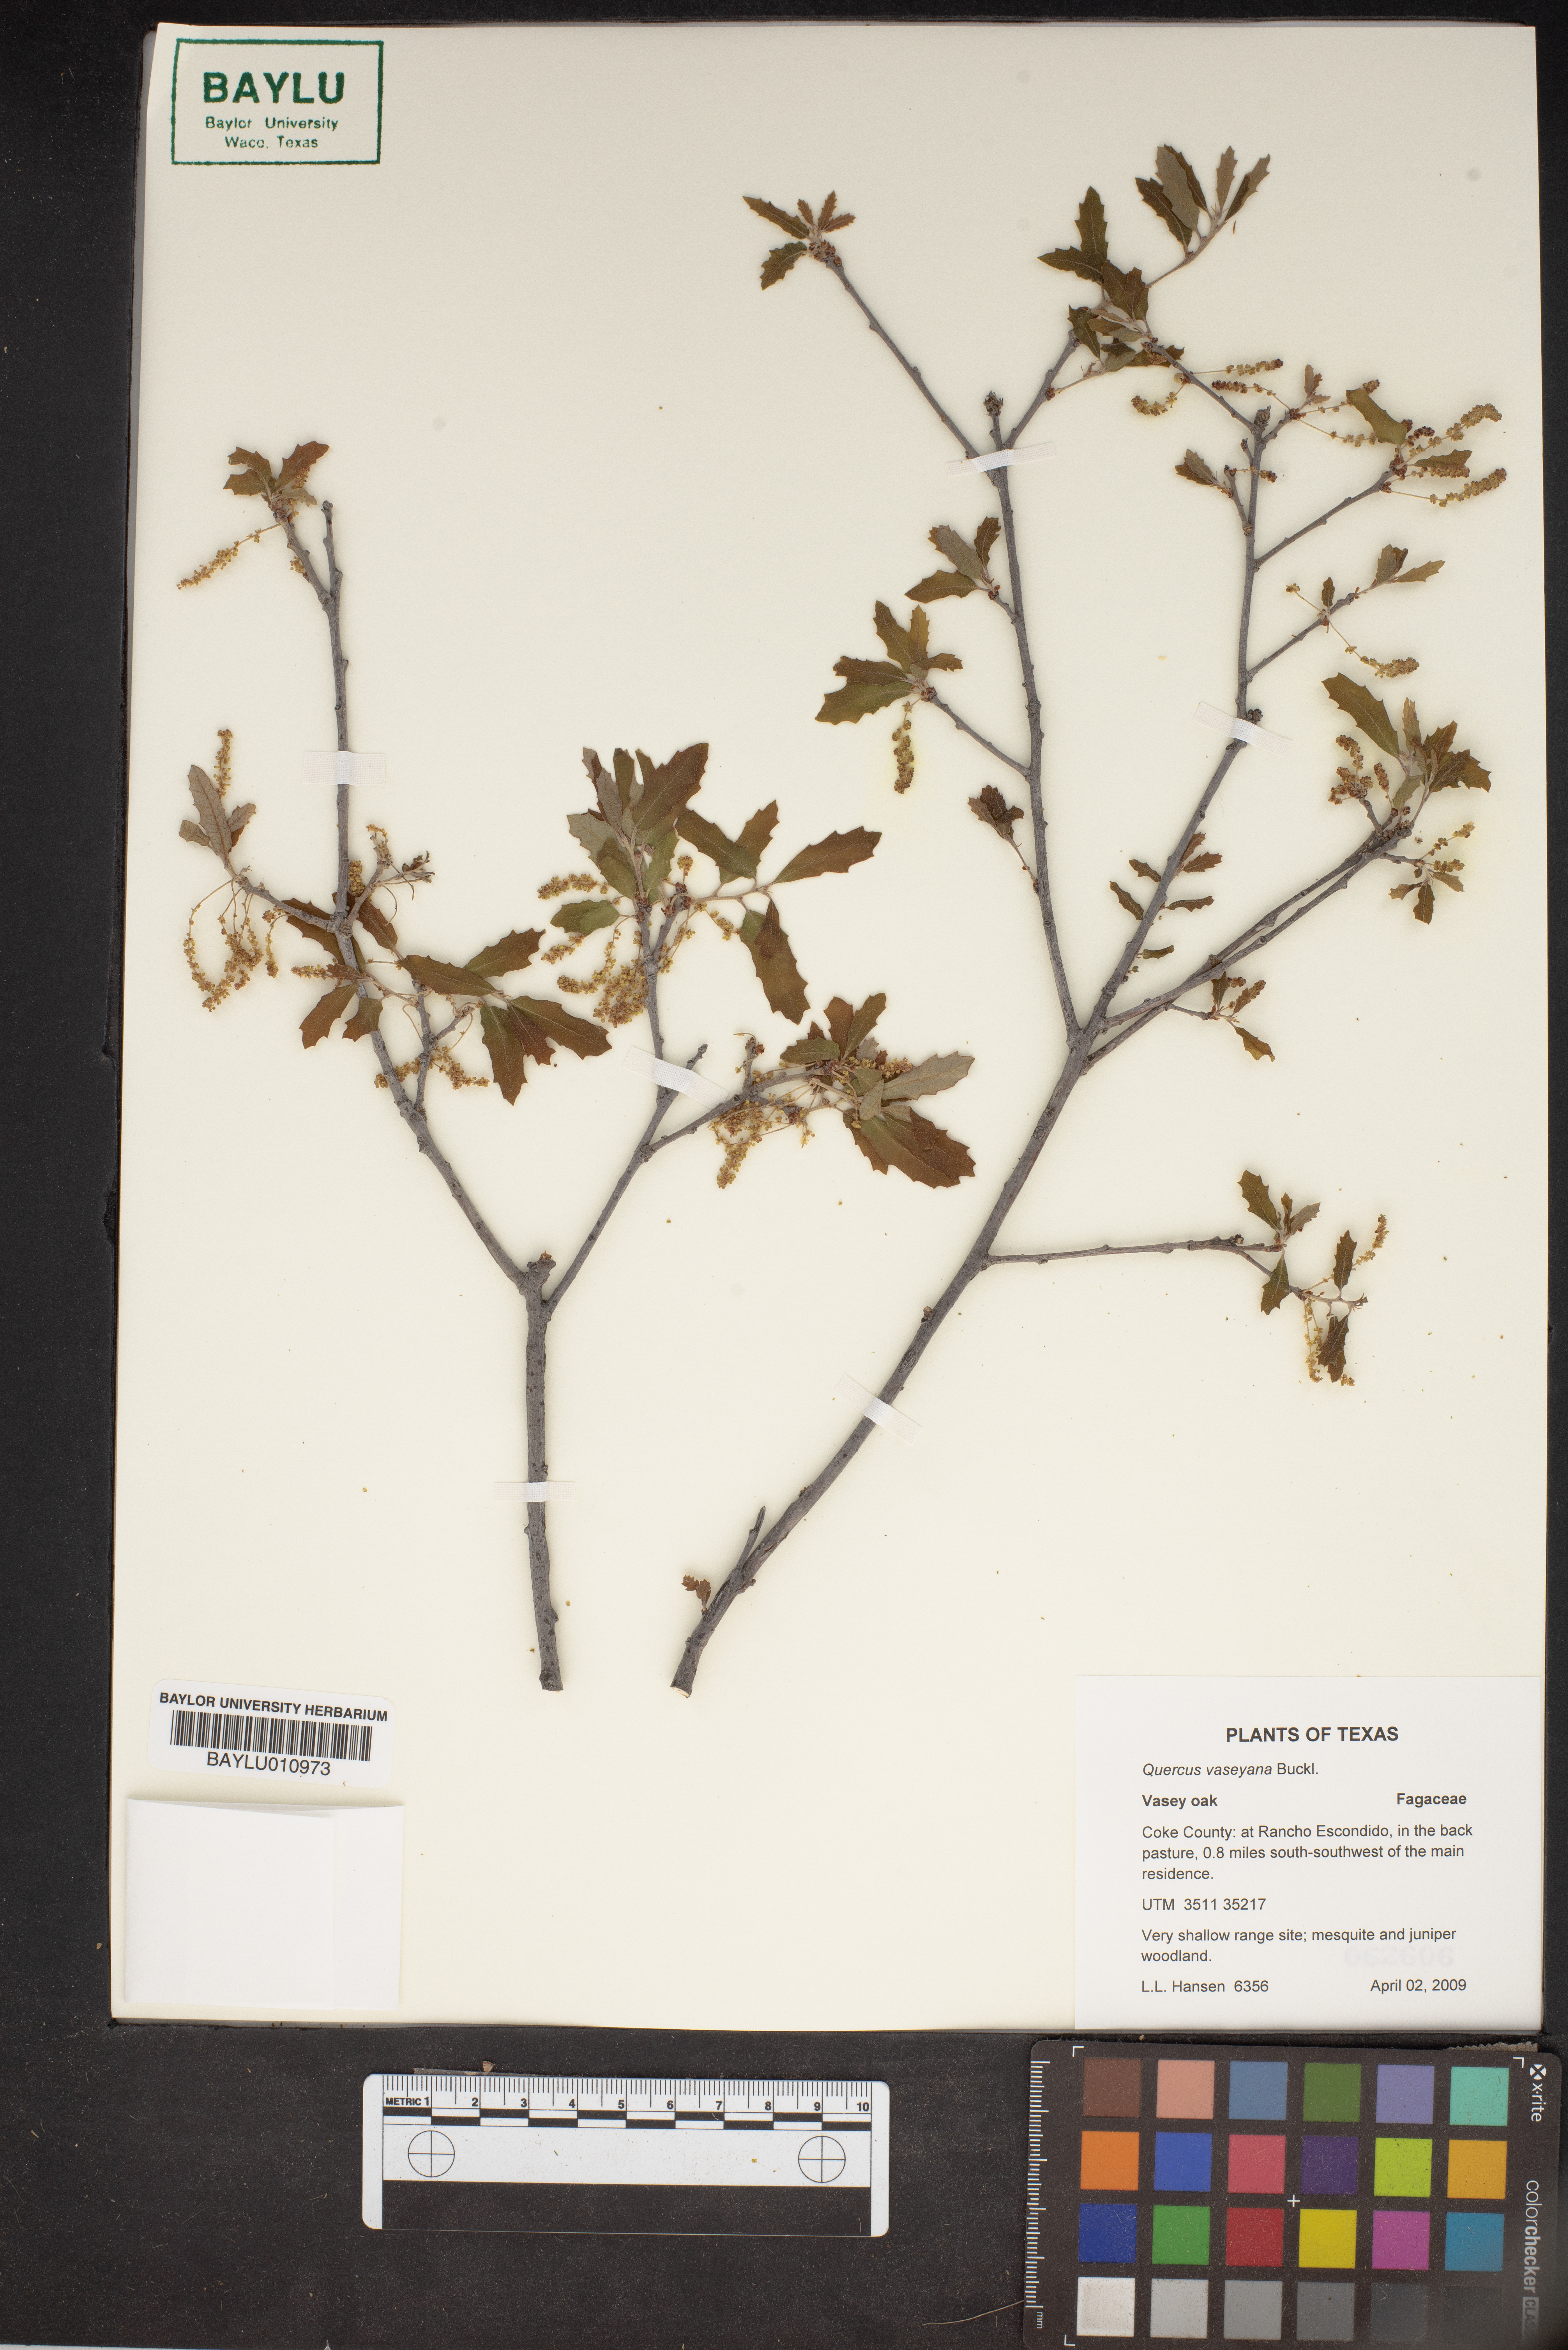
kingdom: Plantae
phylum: Tracheophyta
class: Magnoliopsida
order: Fagales
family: Fagaceae
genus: Quercus
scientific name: Quercus vaseyana
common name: Sandpaper oak
